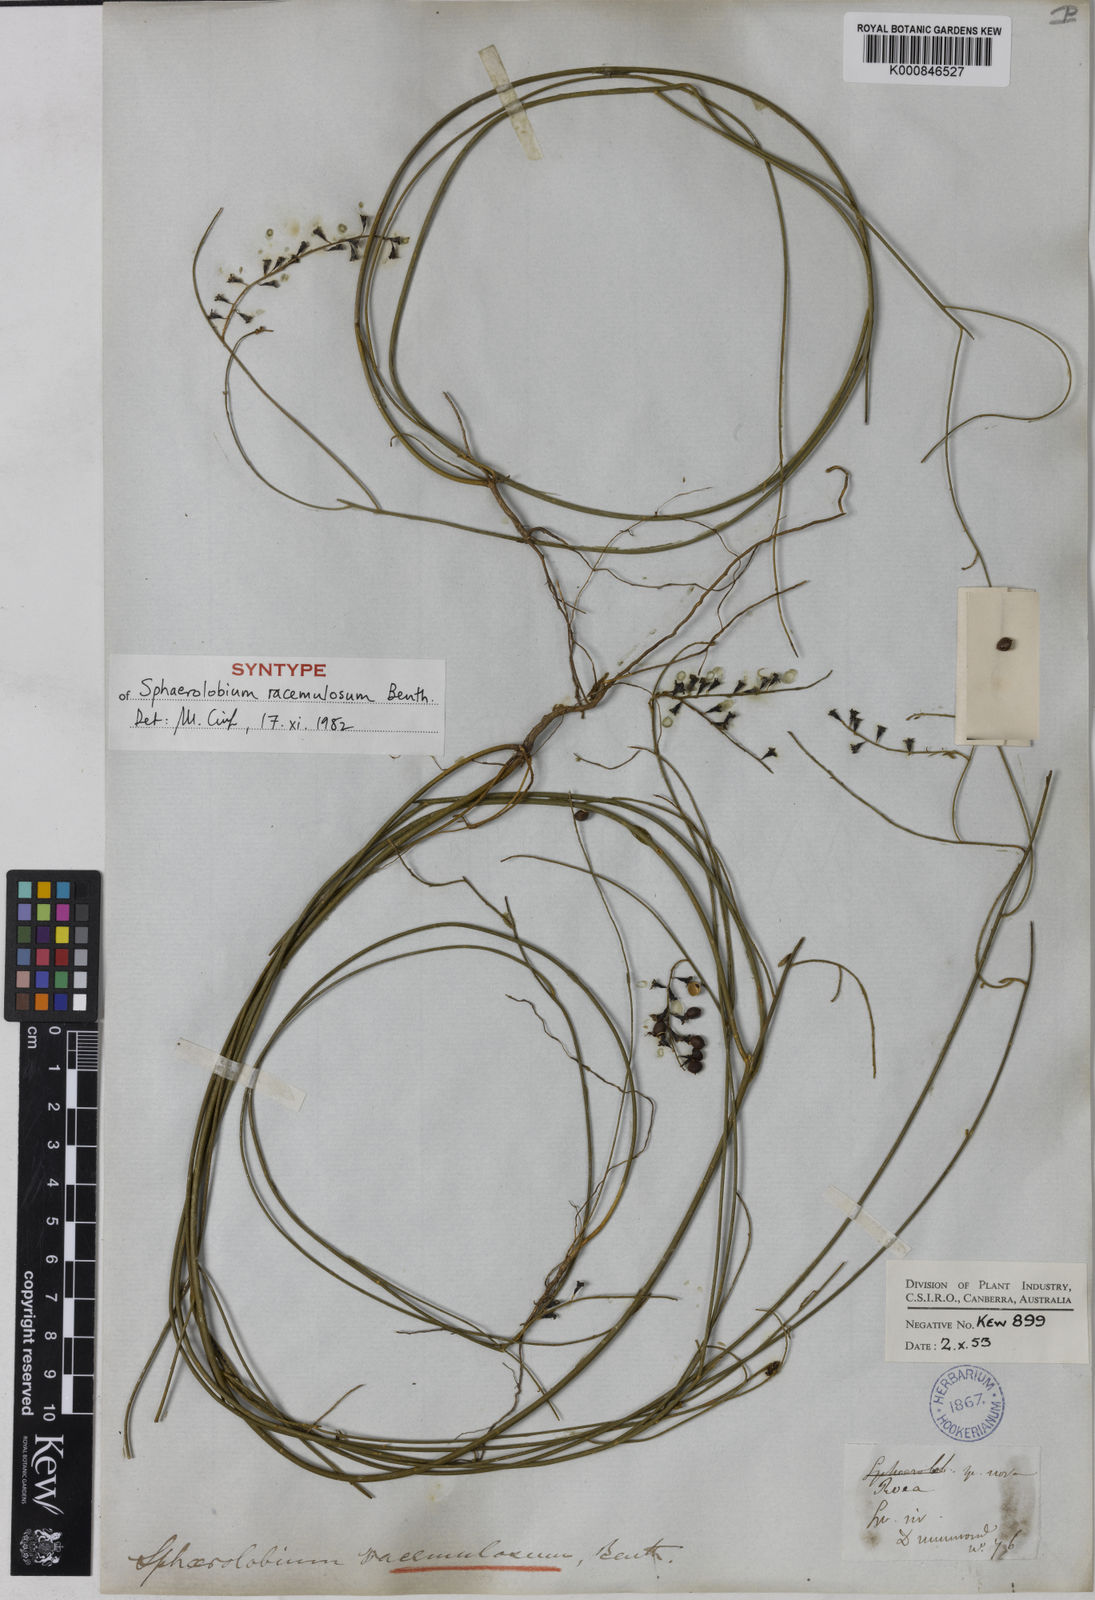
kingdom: Plantae
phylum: Tracheophyta
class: Magnoliopsida
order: Fabales
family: Fabaceae
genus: Sphaerolobium
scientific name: Sphaerolobium racemulosum
